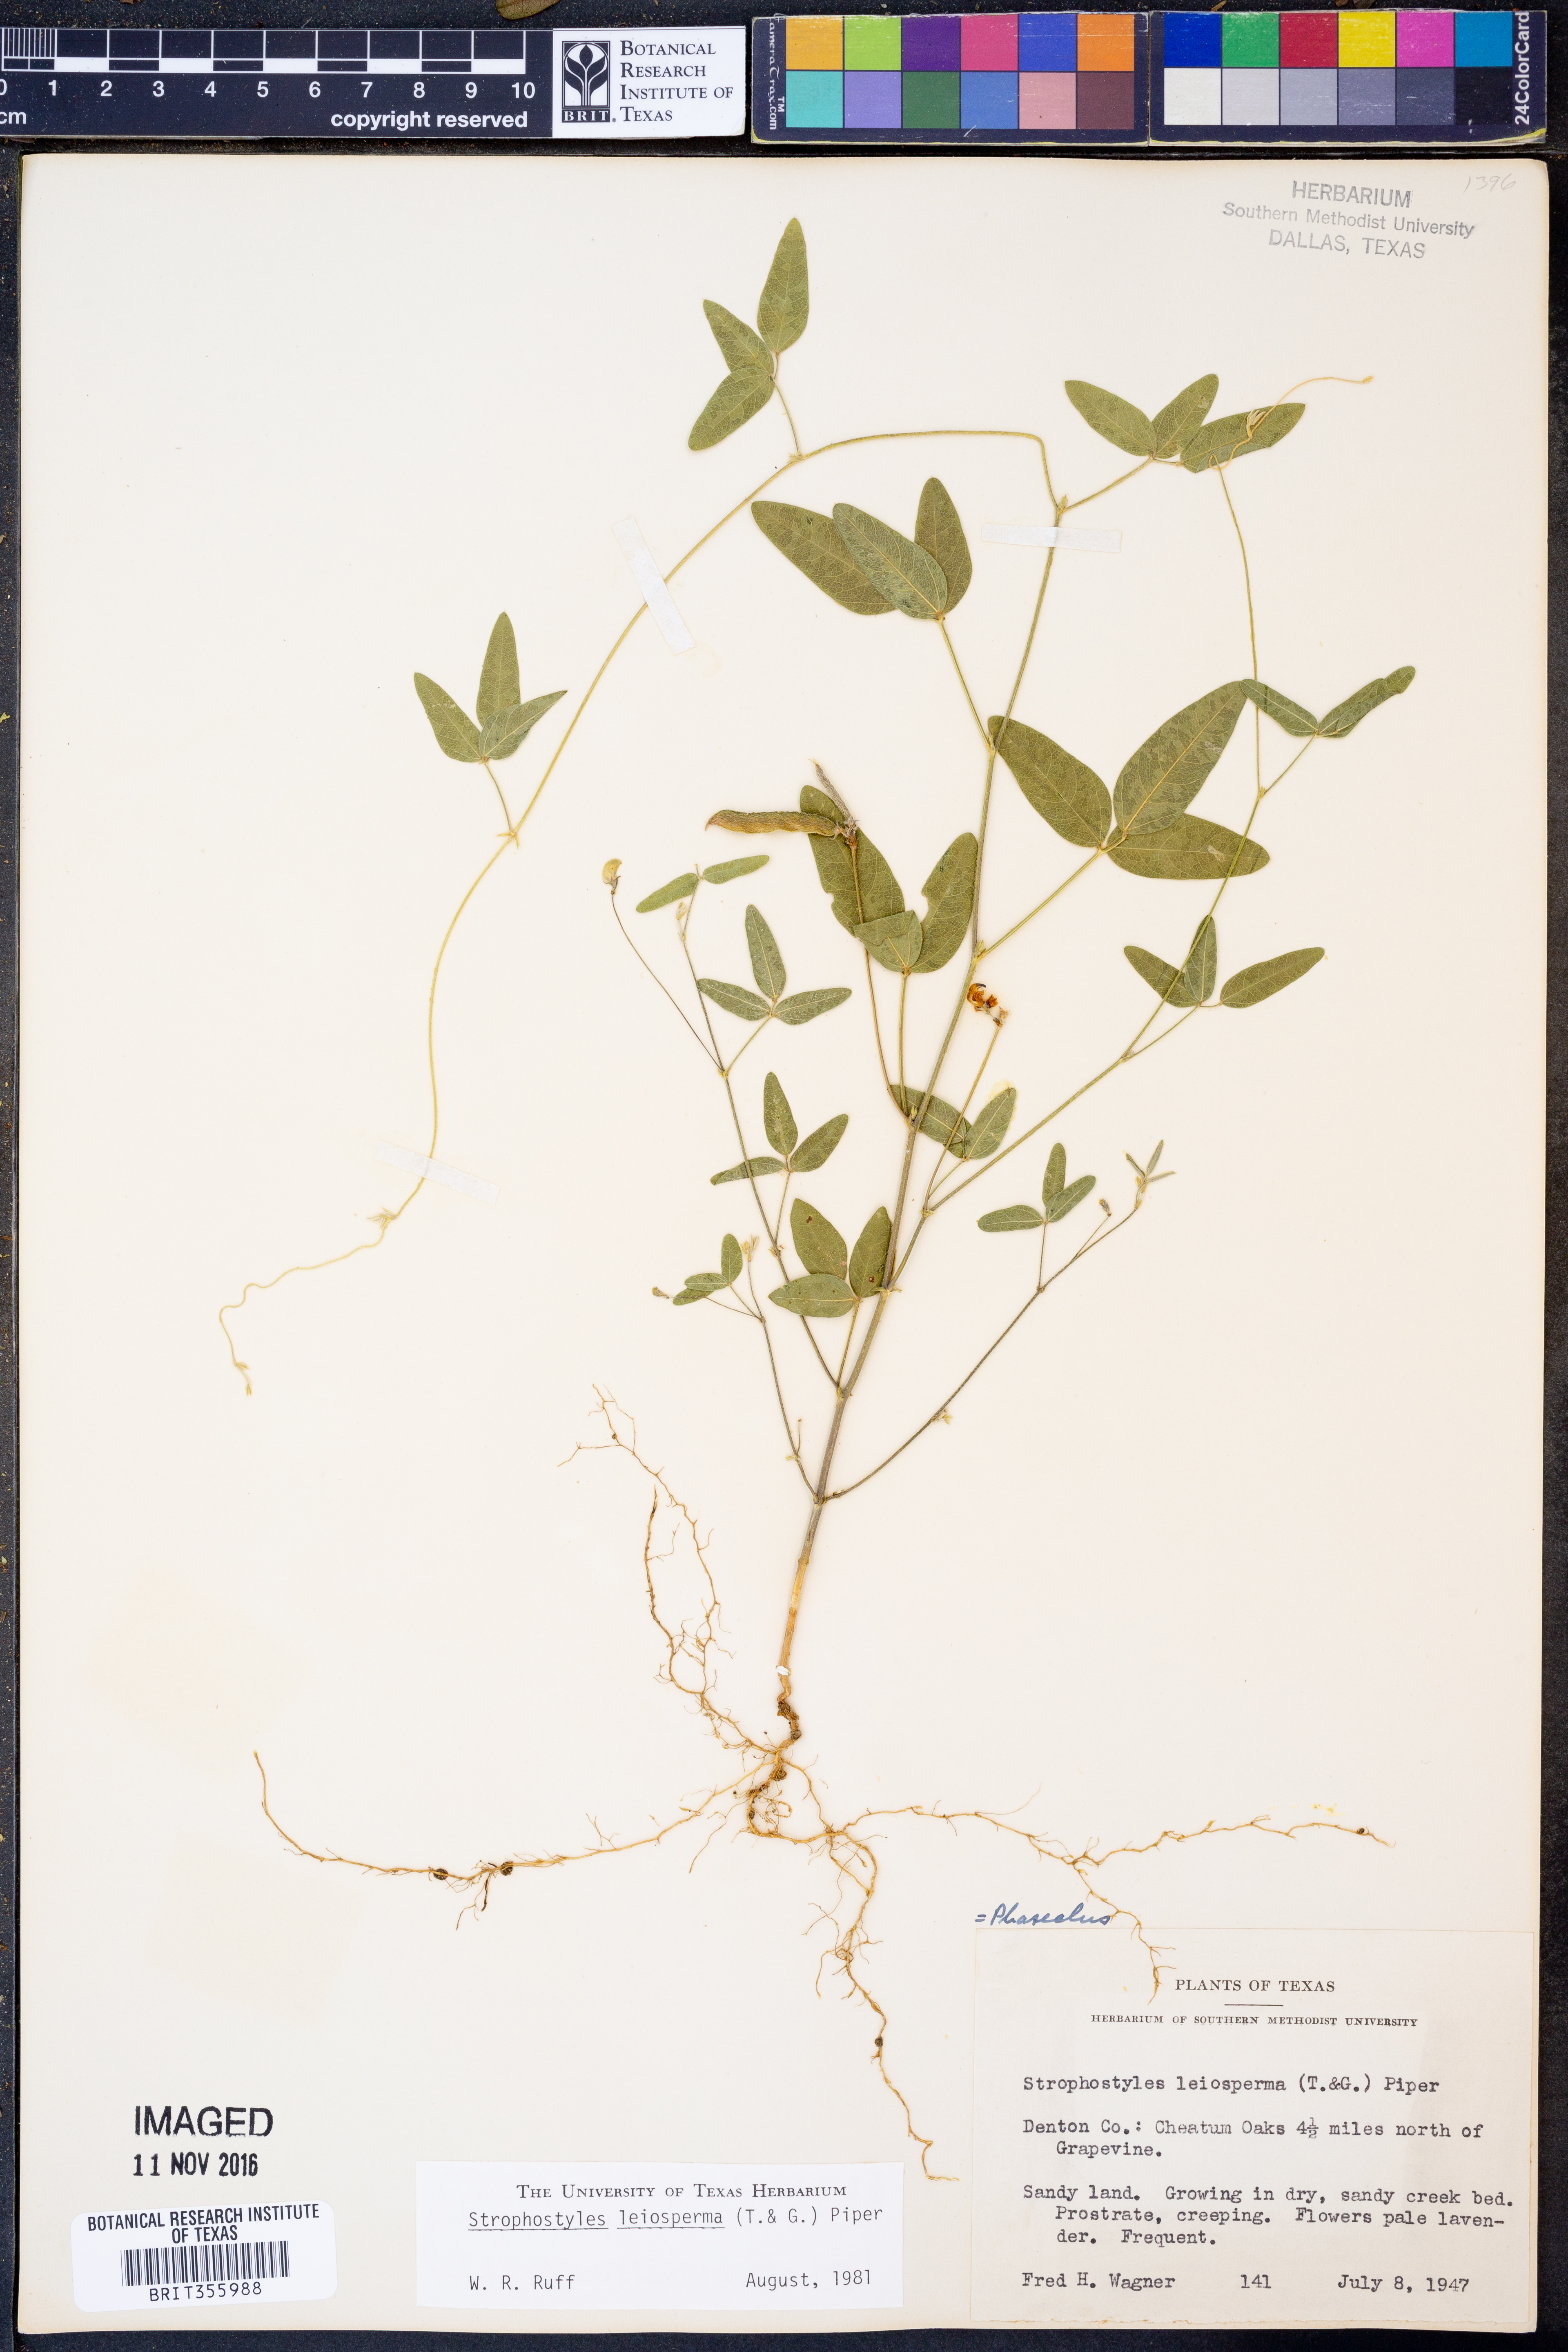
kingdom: Plantae
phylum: Tracheophyta
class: Magnoliopsida
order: Fabales
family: Fabaceae
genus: Strophostyles
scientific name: Strophostyles leiosperma
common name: Smooth-seed wild bean
